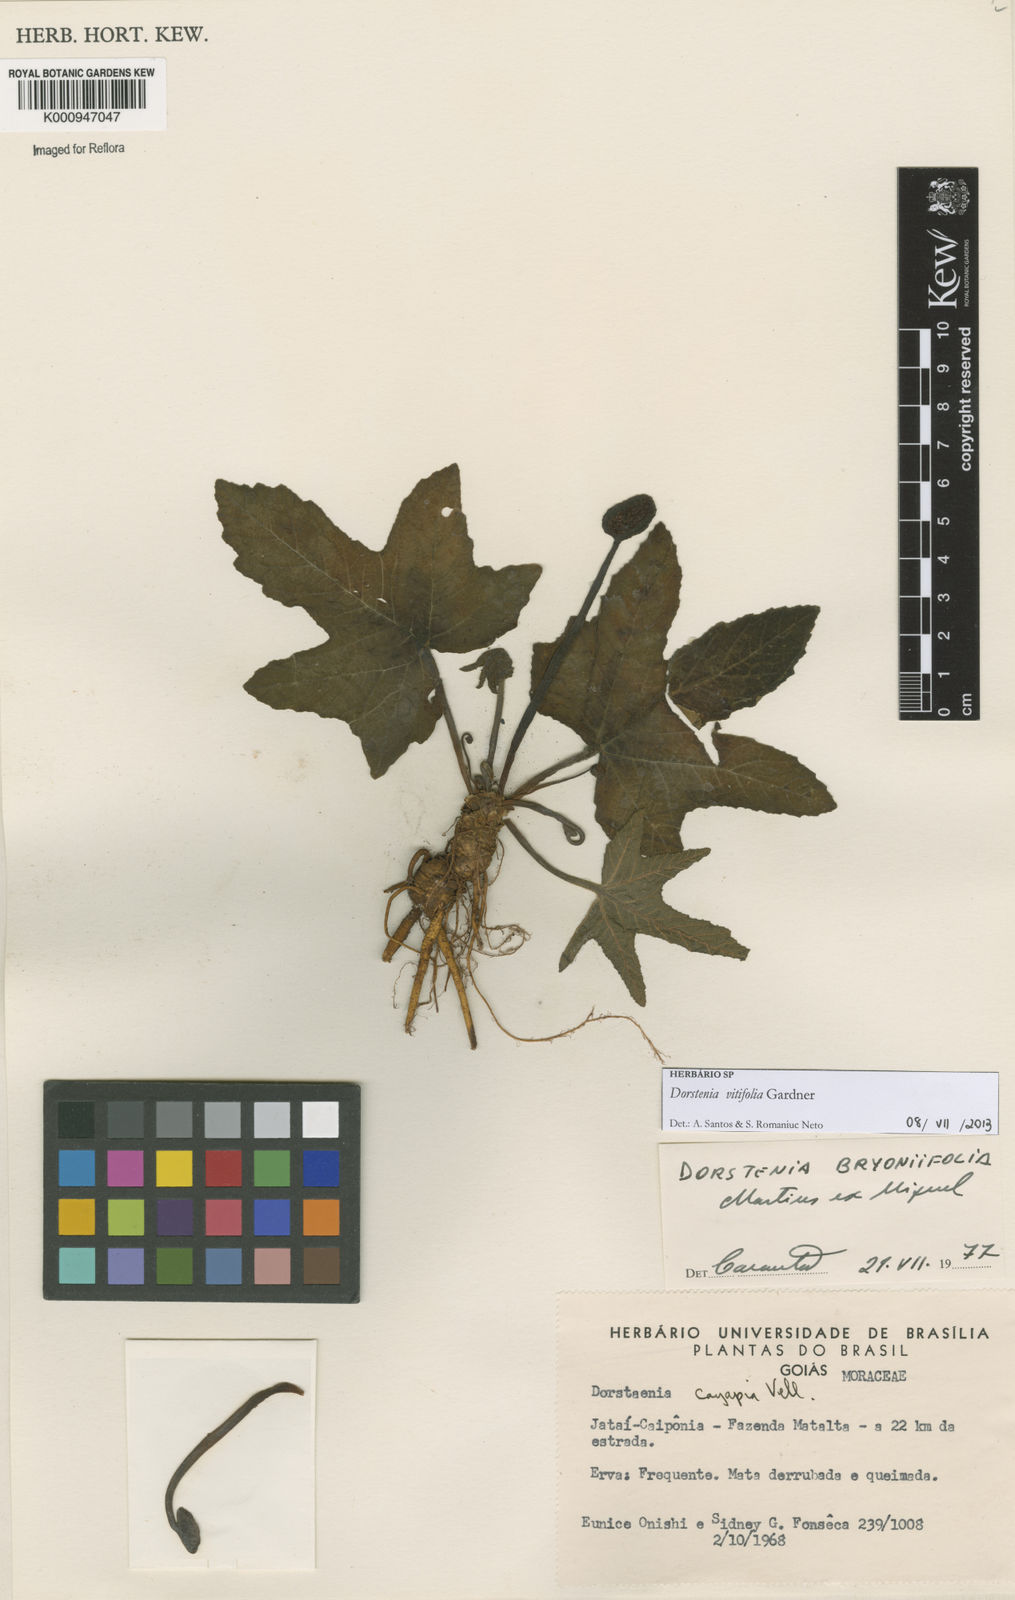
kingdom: Plantae
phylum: Tracheophyta
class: Magnoliopsida
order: Rosales
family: Moraceae
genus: Dorstenia
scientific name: Dorstenia cayapia
